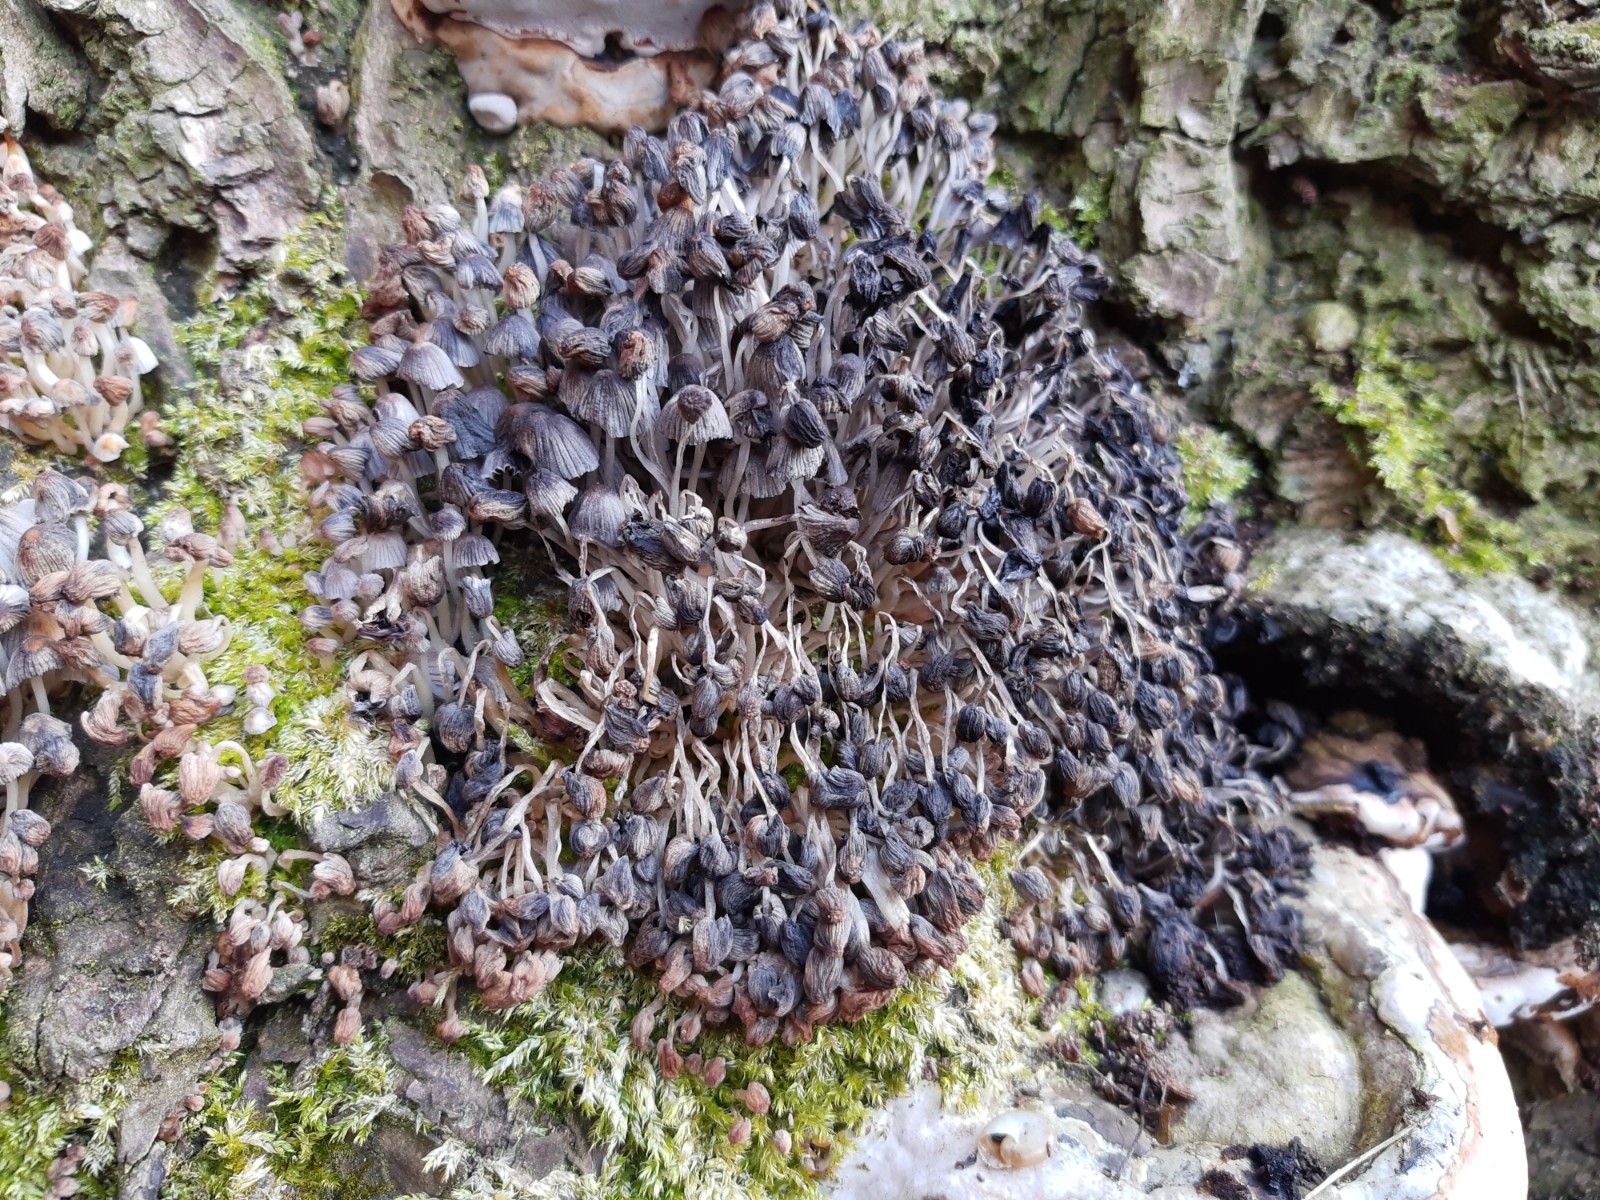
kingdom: Fungi
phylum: Basidiomycota
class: Agaricomycetes
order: Agaricales
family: Psathyrellaceae
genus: Coprinellus
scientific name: Coprinellus disseminatus
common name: bredsået blækhat
